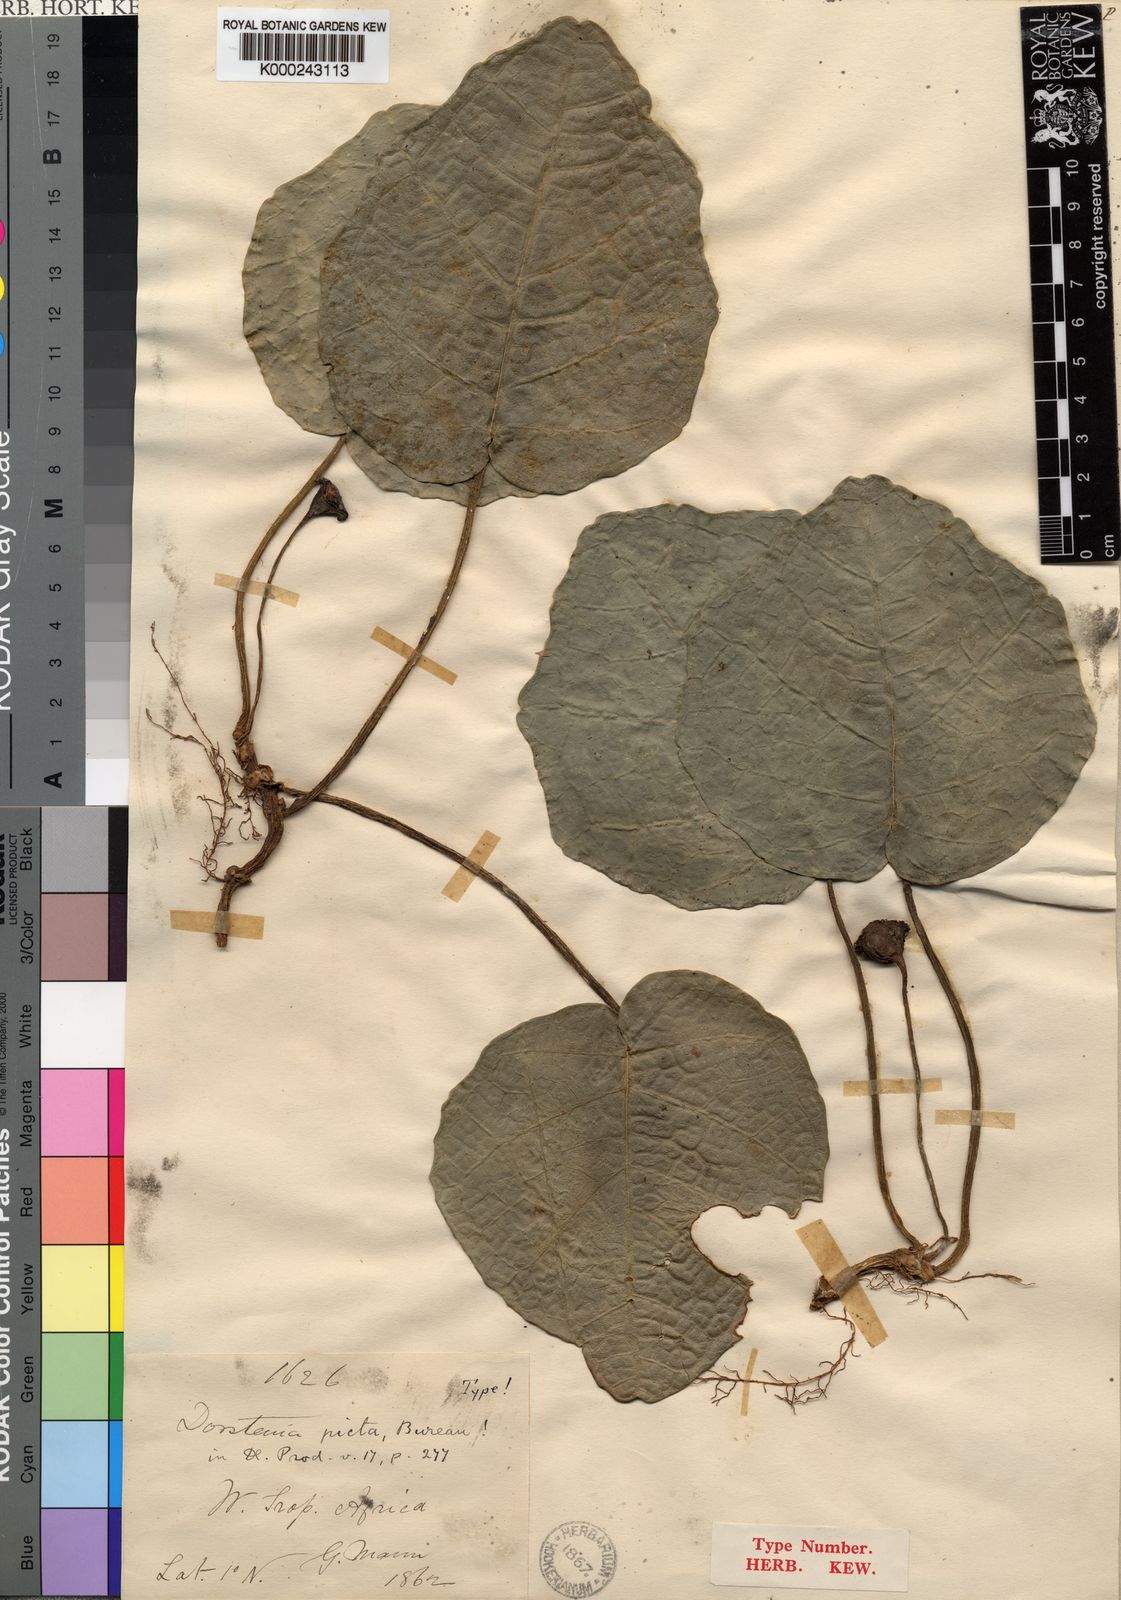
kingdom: Plantae
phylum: Tracheophyta
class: Magnoliopsida
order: Rosales
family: Moraceae
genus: Dorstenia
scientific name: Dorstenia
